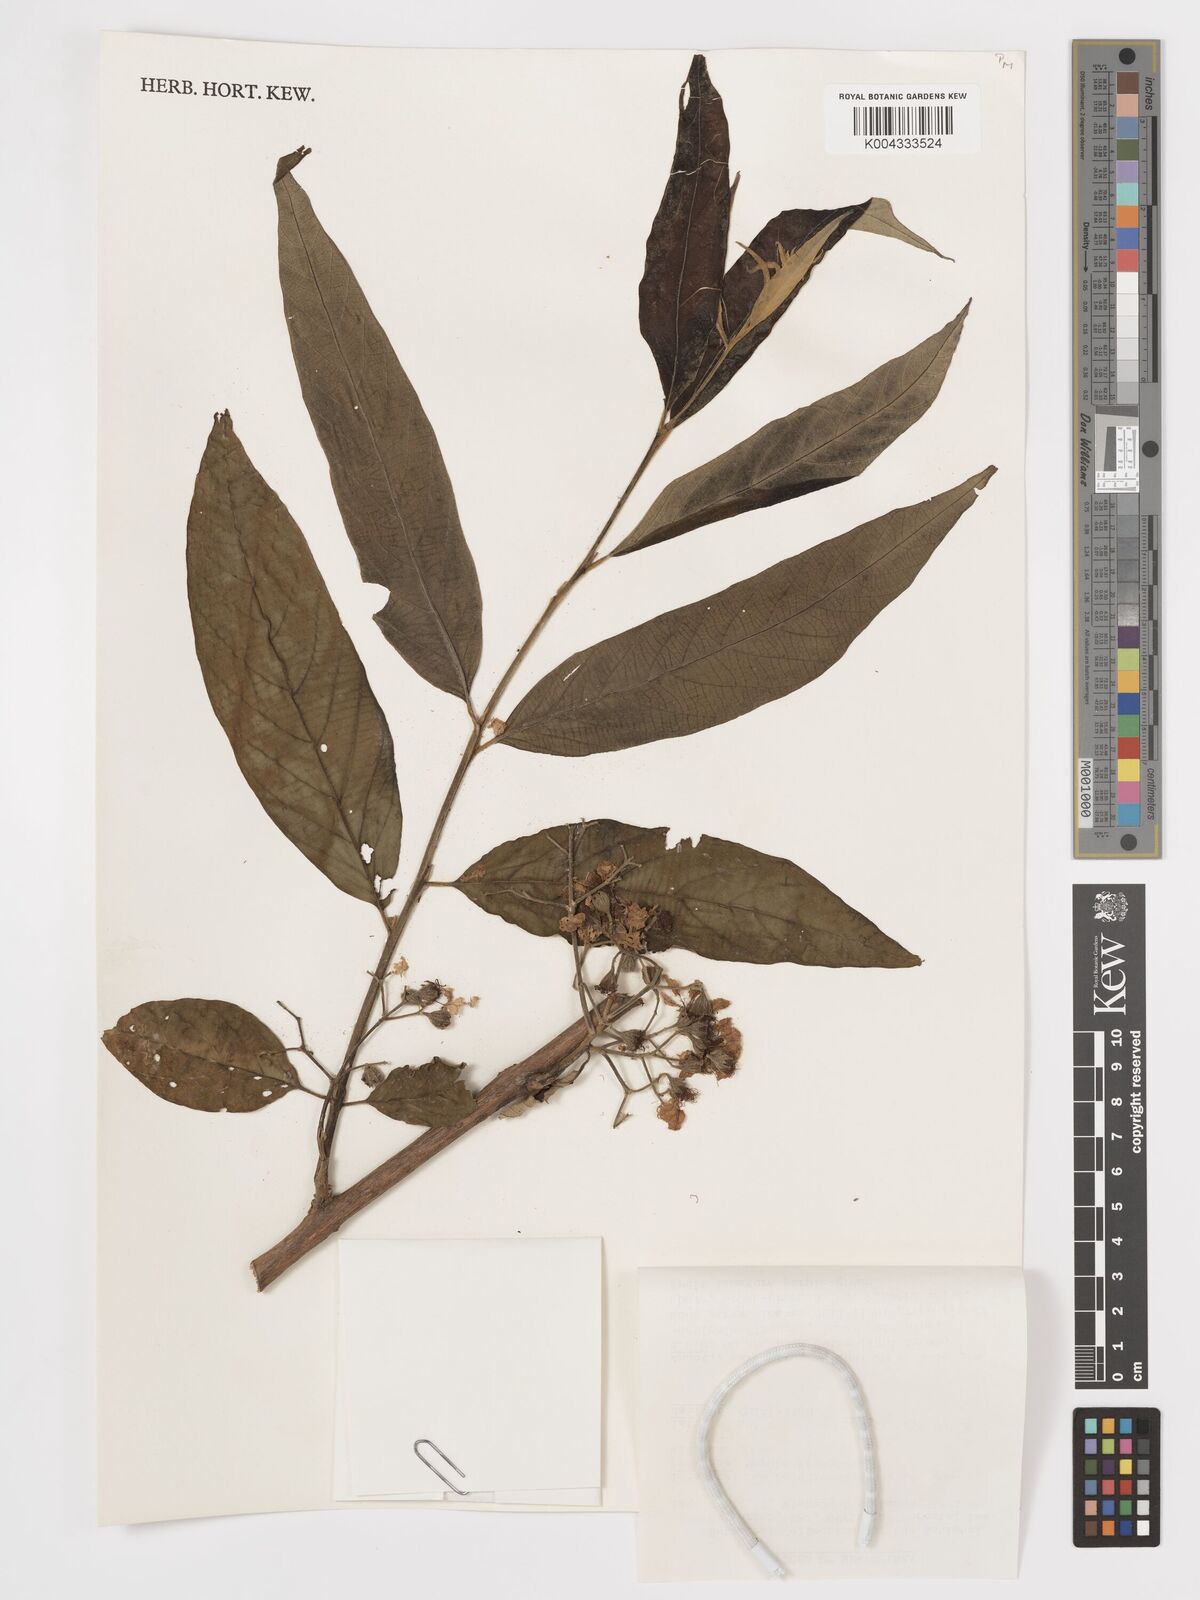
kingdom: Plantae
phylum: Tracheophyta
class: Magnoliopsida
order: Myrtales
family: Lythraceae
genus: Lagerstroemia
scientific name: Lagerstroemia tomentosa
